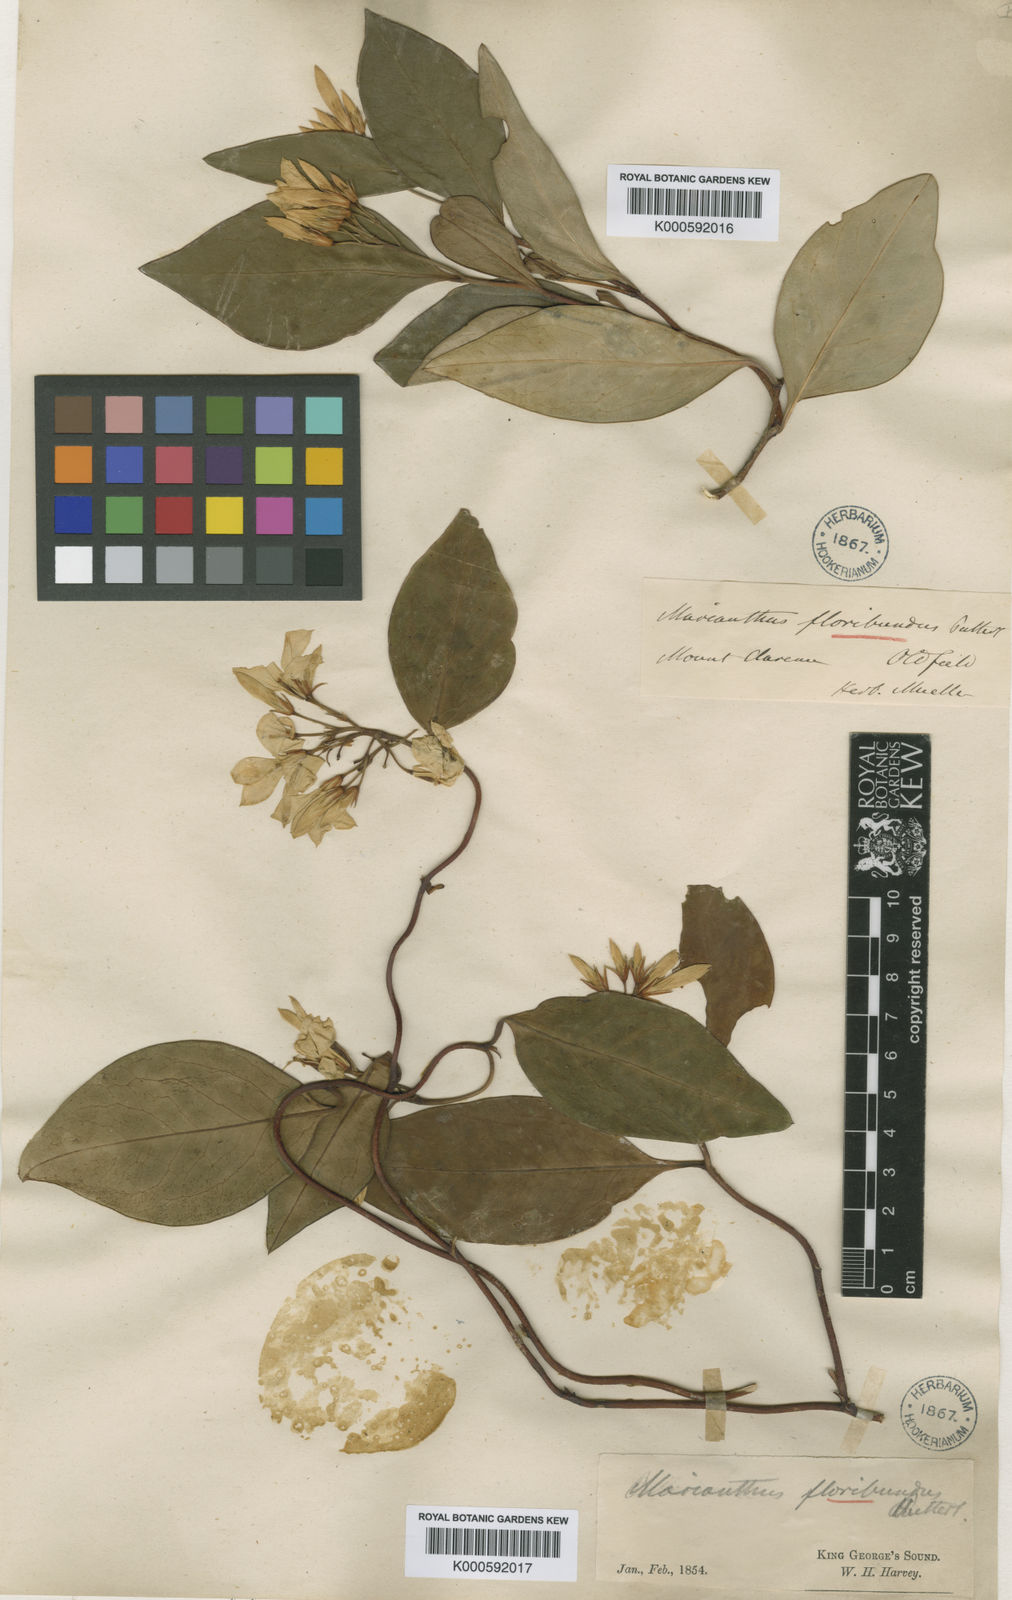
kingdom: Plantae
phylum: Tracheophyta
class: Magnoliopsida
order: Apiales
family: Pittosporaceae
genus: Billardiera
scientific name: Billardiera floribunda
